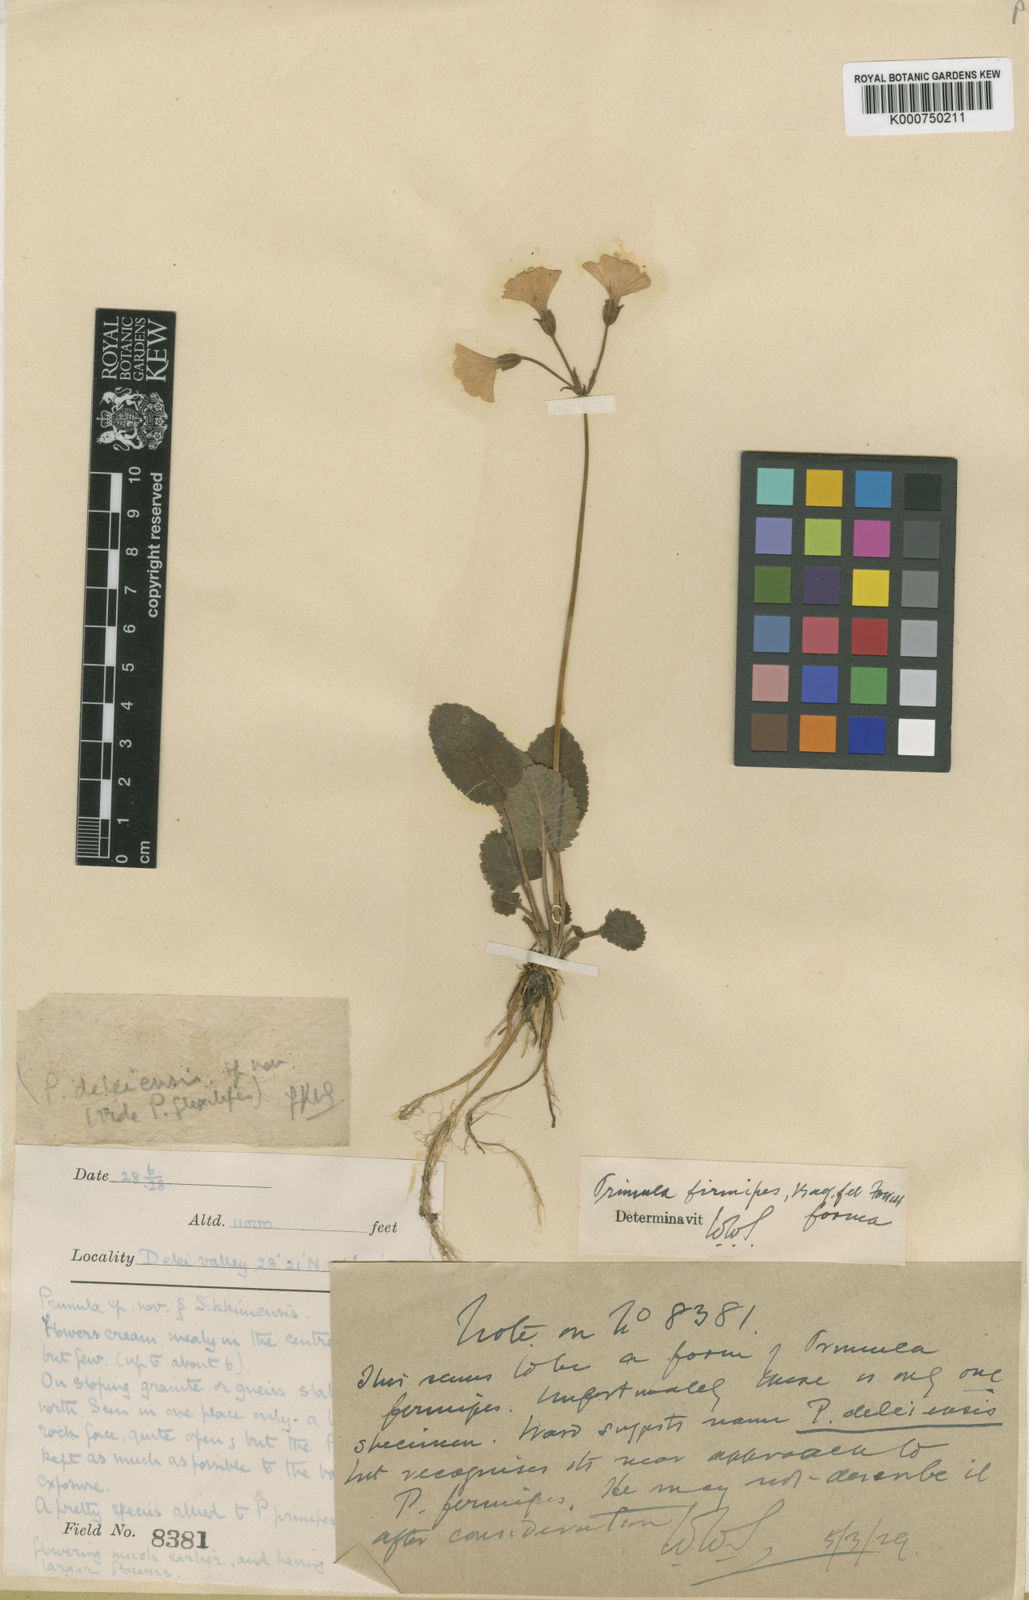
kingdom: Plantae
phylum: Tracheophyta
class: Magnoliopsida
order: Ericales
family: Primulaceae
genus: Primula
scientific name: Primula firmipes
